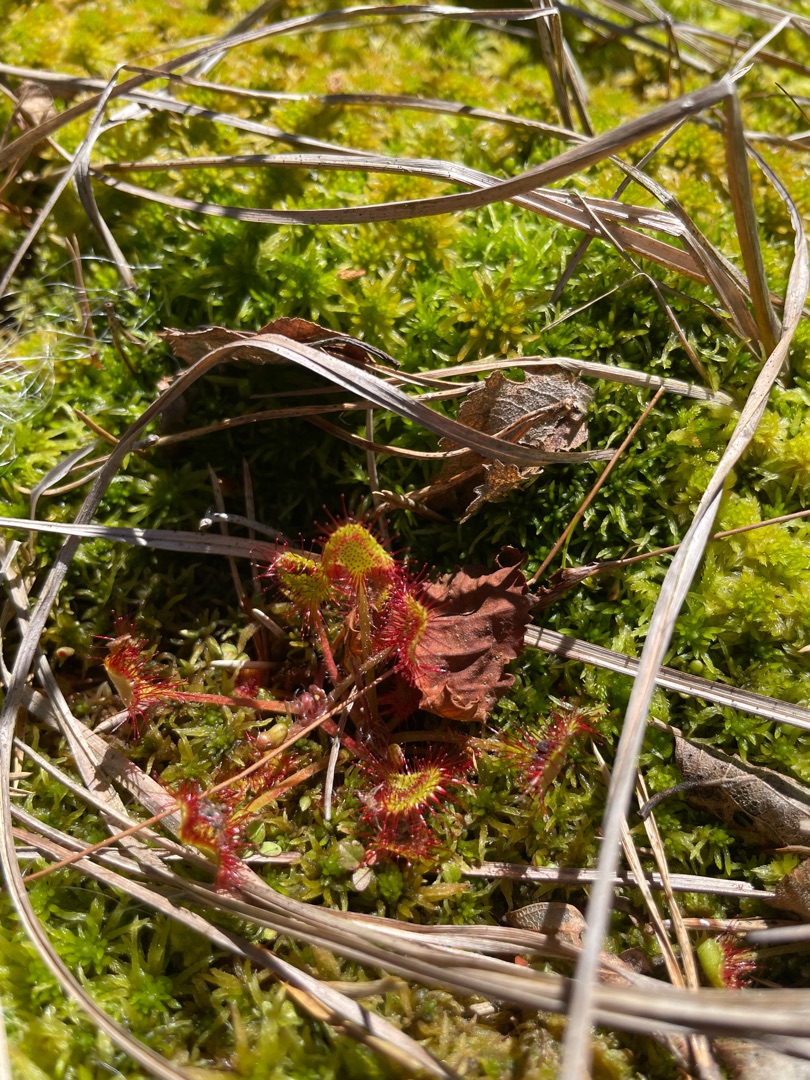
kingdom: Plantae
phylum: Tracheophyta
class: Magnoliopsida
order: Caryophyllales
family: Droseraceae
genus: Drosera
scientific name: Drosera rotundifolia
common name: Rundbladet soldug
